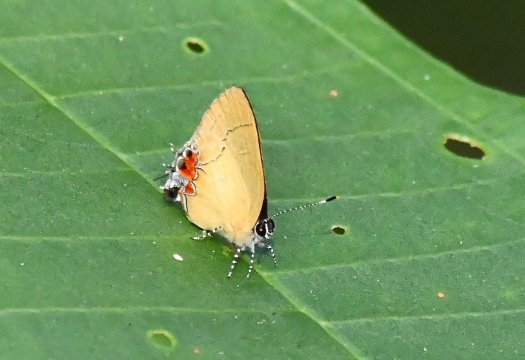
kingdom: Animalia
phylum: Arthropoda
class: Insecta
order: Lepidoptera
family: Lycaenidae
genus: Calycopis
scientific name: Calycopis trebula
